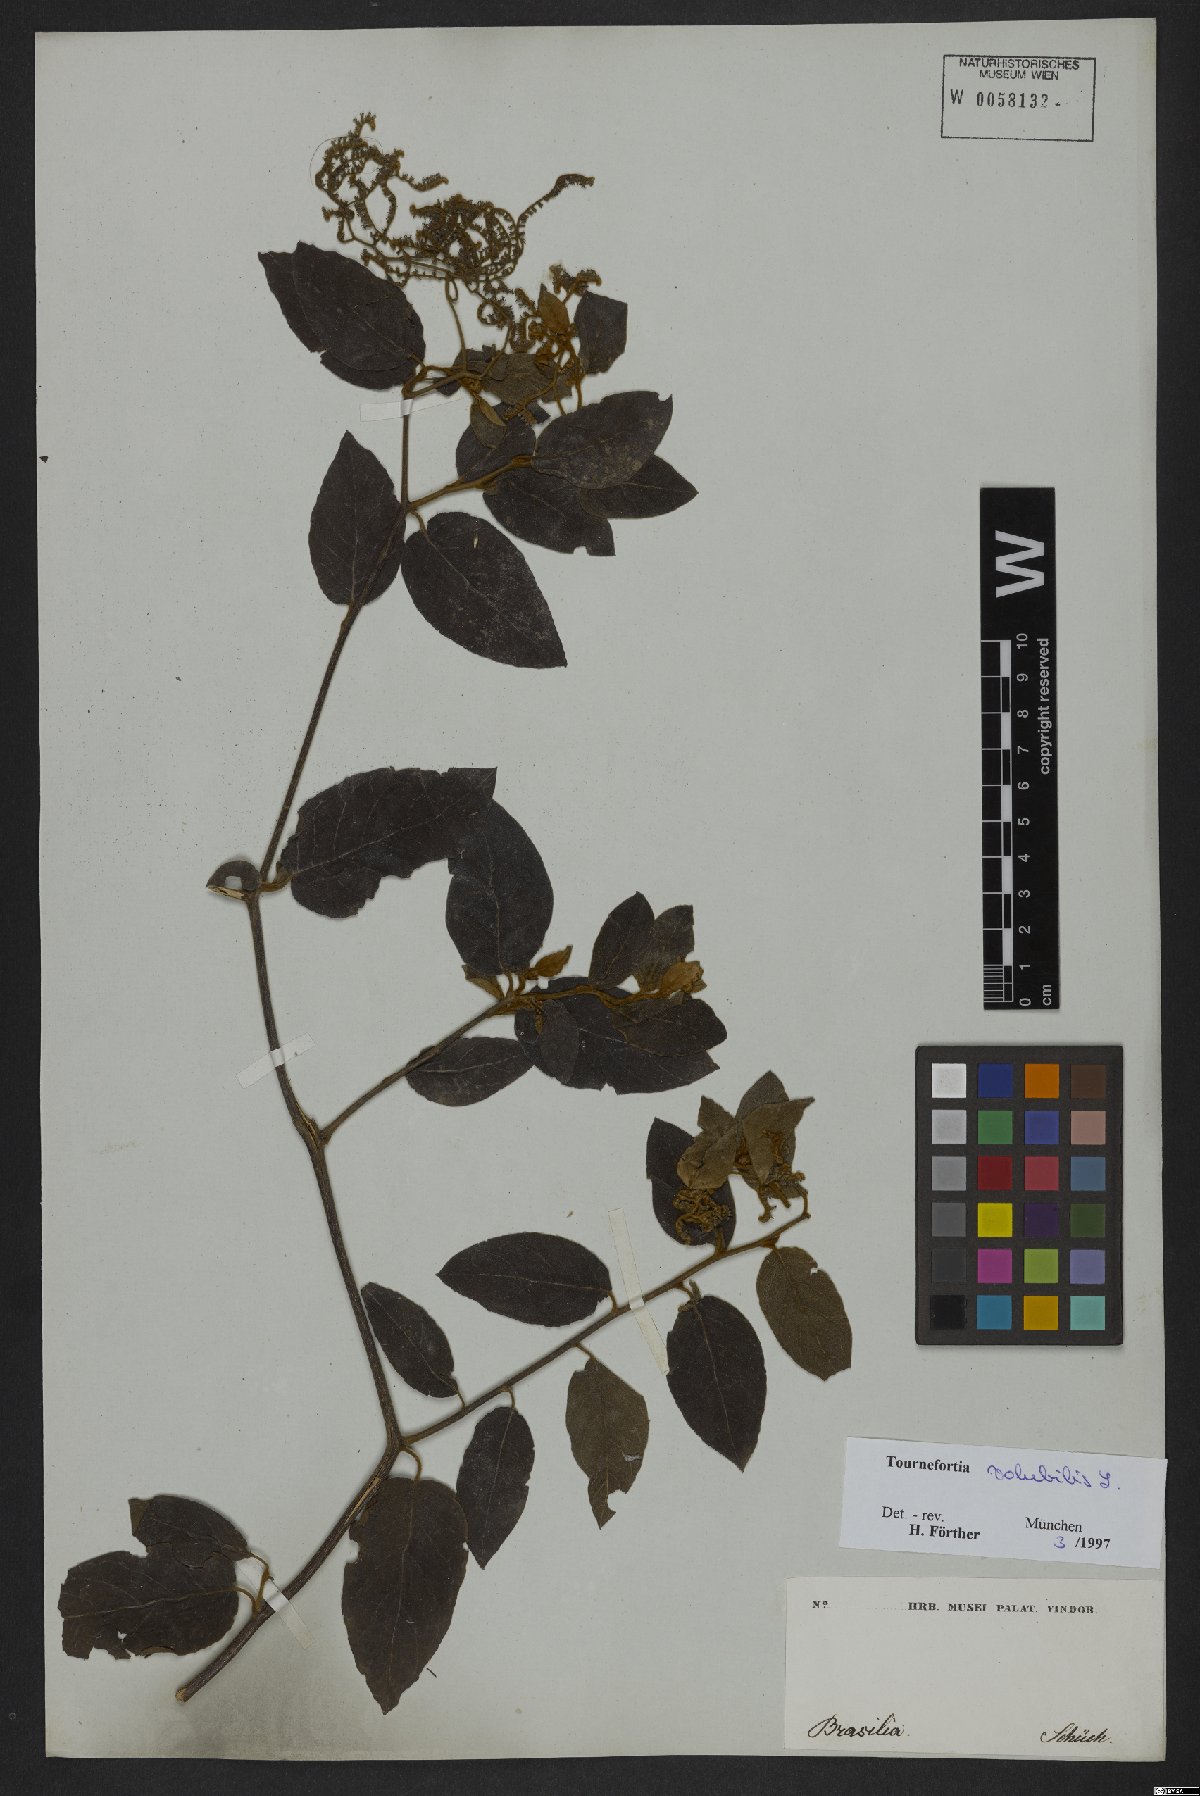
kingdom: Plantae
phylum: Tracheophyta
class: Magnoliopsida
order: Boraginales
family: Heliotropiaceae
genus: Myriopus
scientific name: Myriopus volubilis
